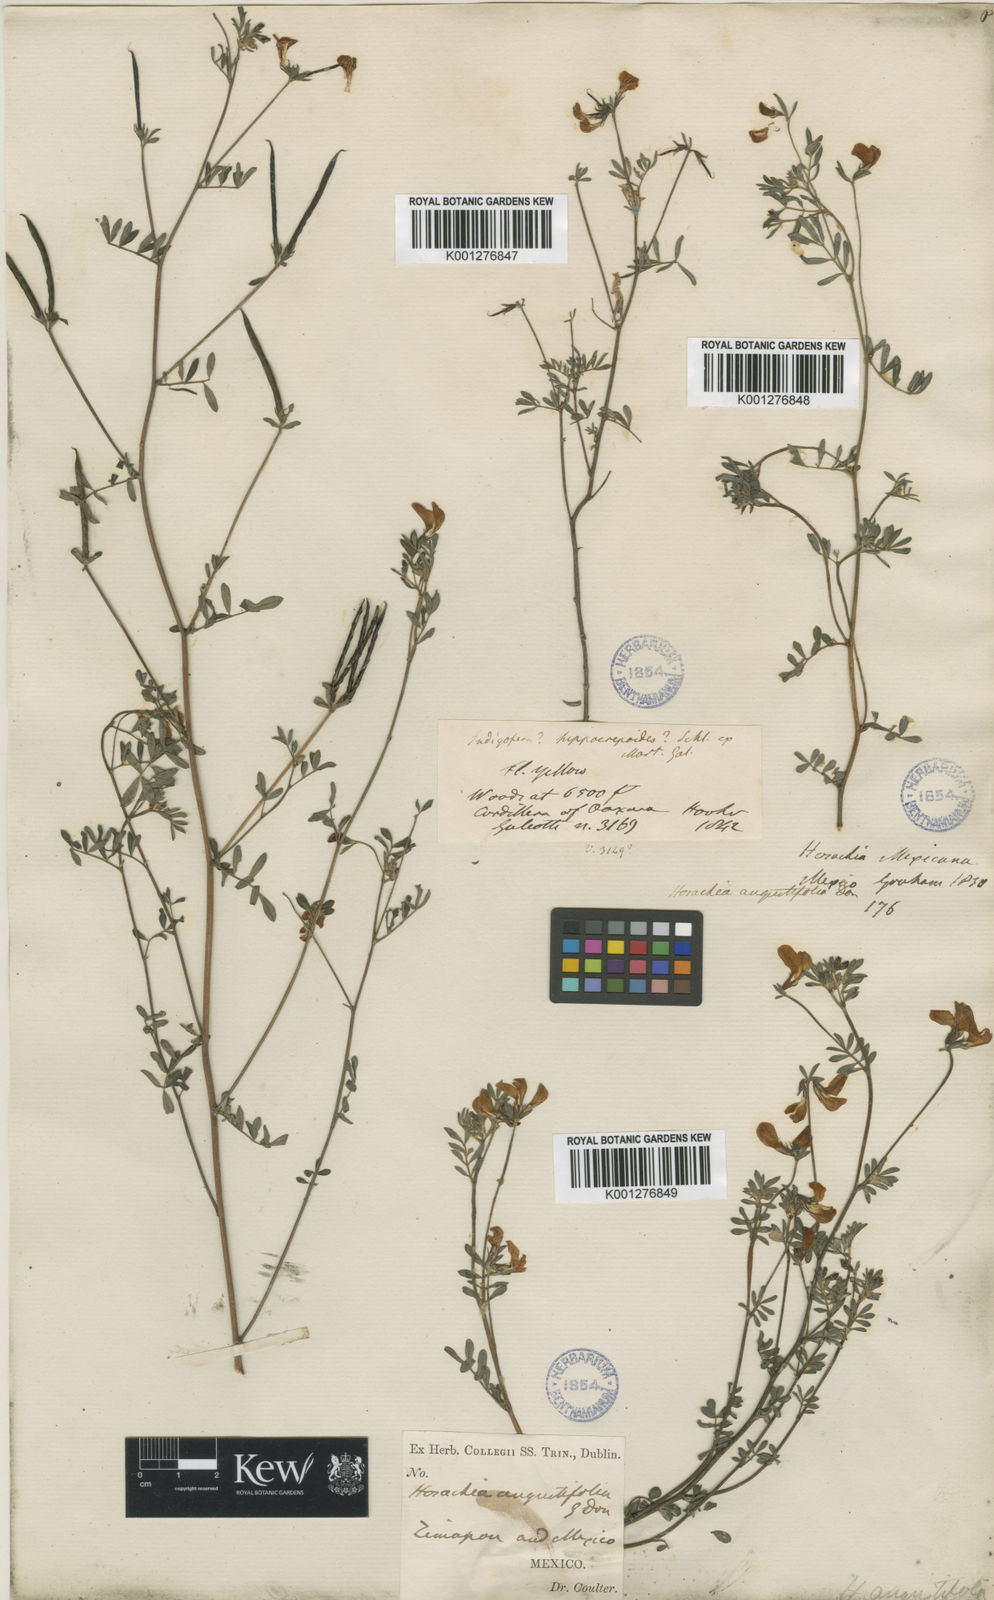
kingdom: Plantae
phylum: Tracheophyta
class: Magnoliopsida
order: Fabales
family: Fabaceae
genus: Lotus
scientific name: Lotus angustissimus
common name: Slender bird's-foot trefoil
